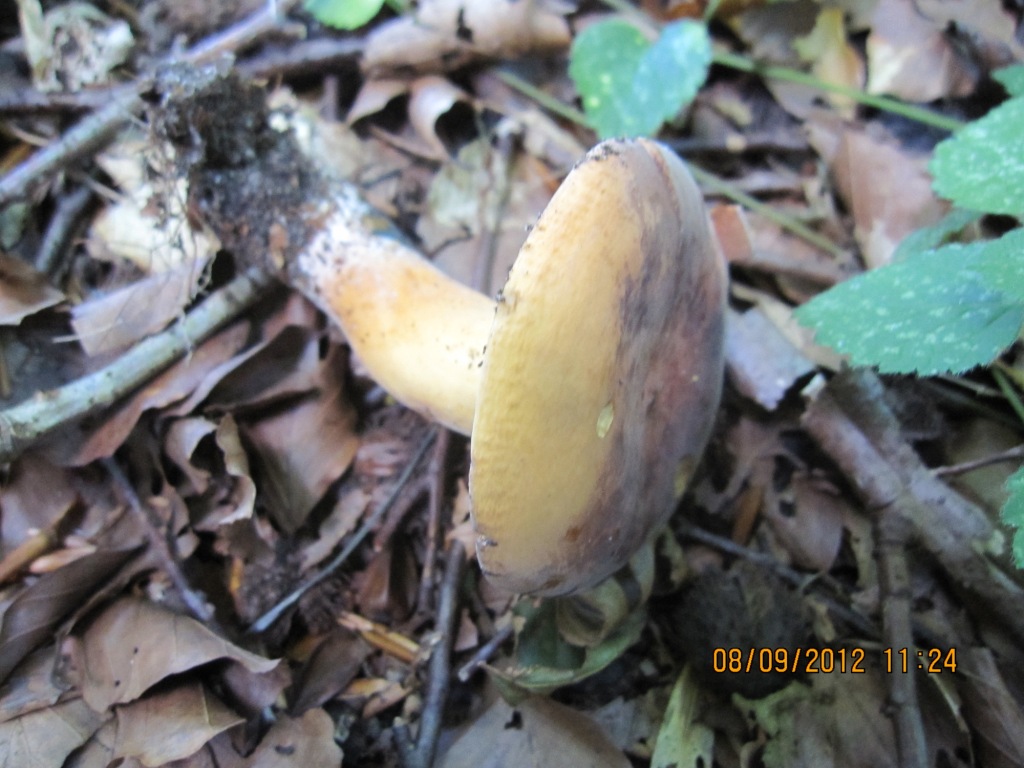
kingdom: Fungi
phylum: Basidiomycota
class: Agaricomycetes
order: Russulales
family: Russulaceae
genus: Lactifluus
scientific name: Lactifluus volemus
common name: spiselig mælkehat
